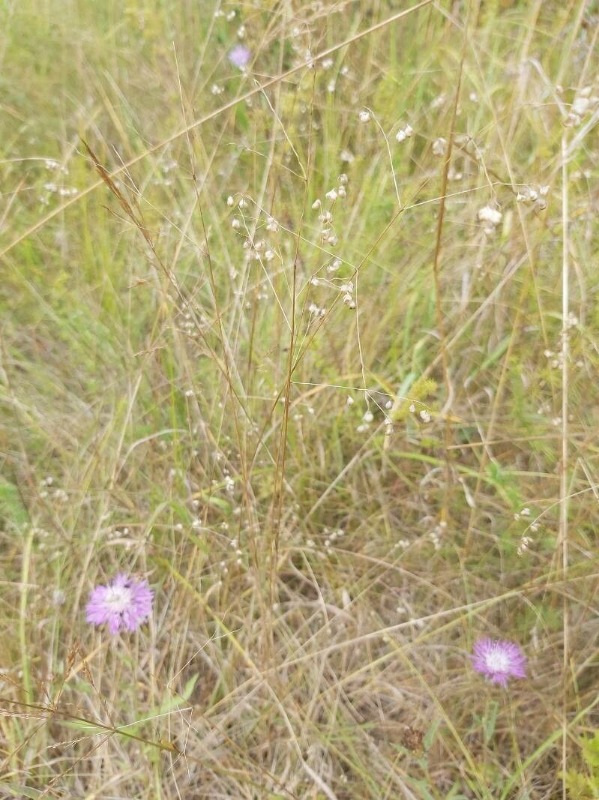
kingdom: Plantae
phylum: Tracheophyta
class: Liliopsida
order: Poales
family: Poaceae
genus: Briza
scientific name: Briza media
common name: Hjertegræs
